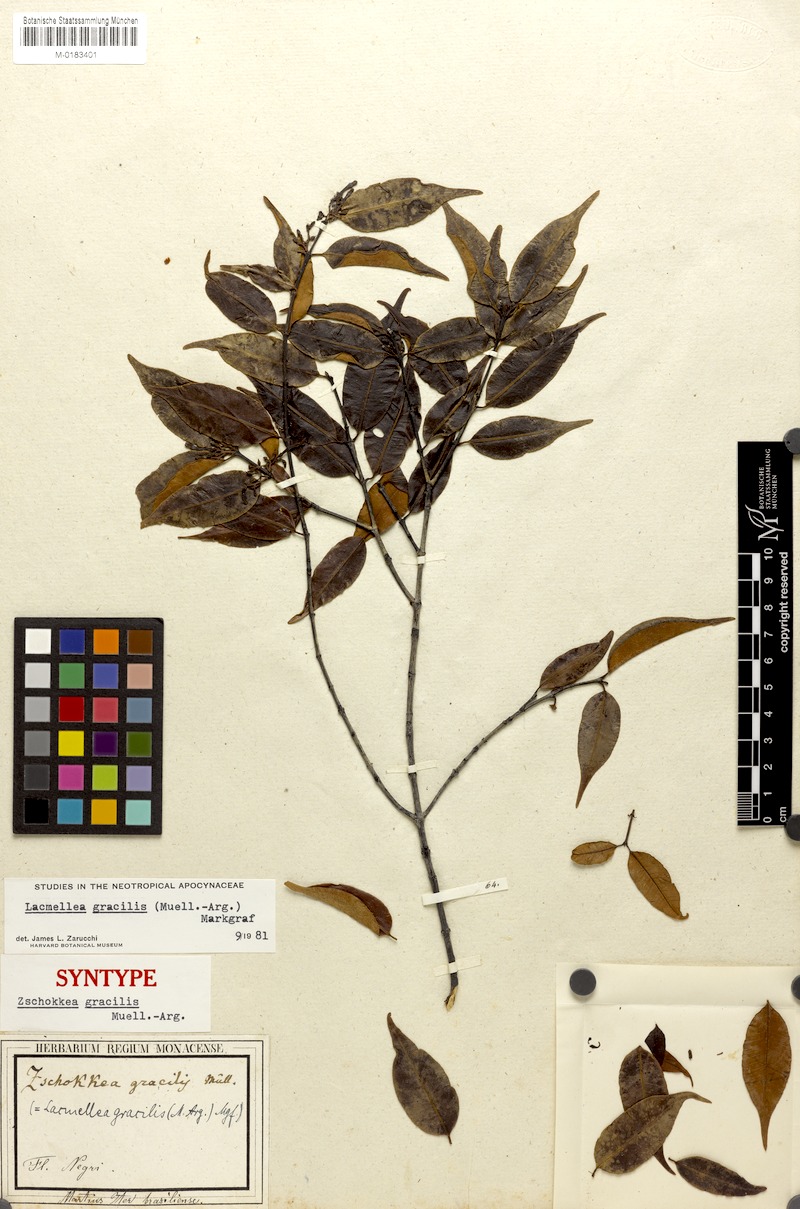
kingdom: Plantae
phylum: Tracheophyta
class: Magnoliopsida
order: Gentianales
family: Apocynaceae
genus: Lacmellea
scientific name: Lacmellea gracilis
